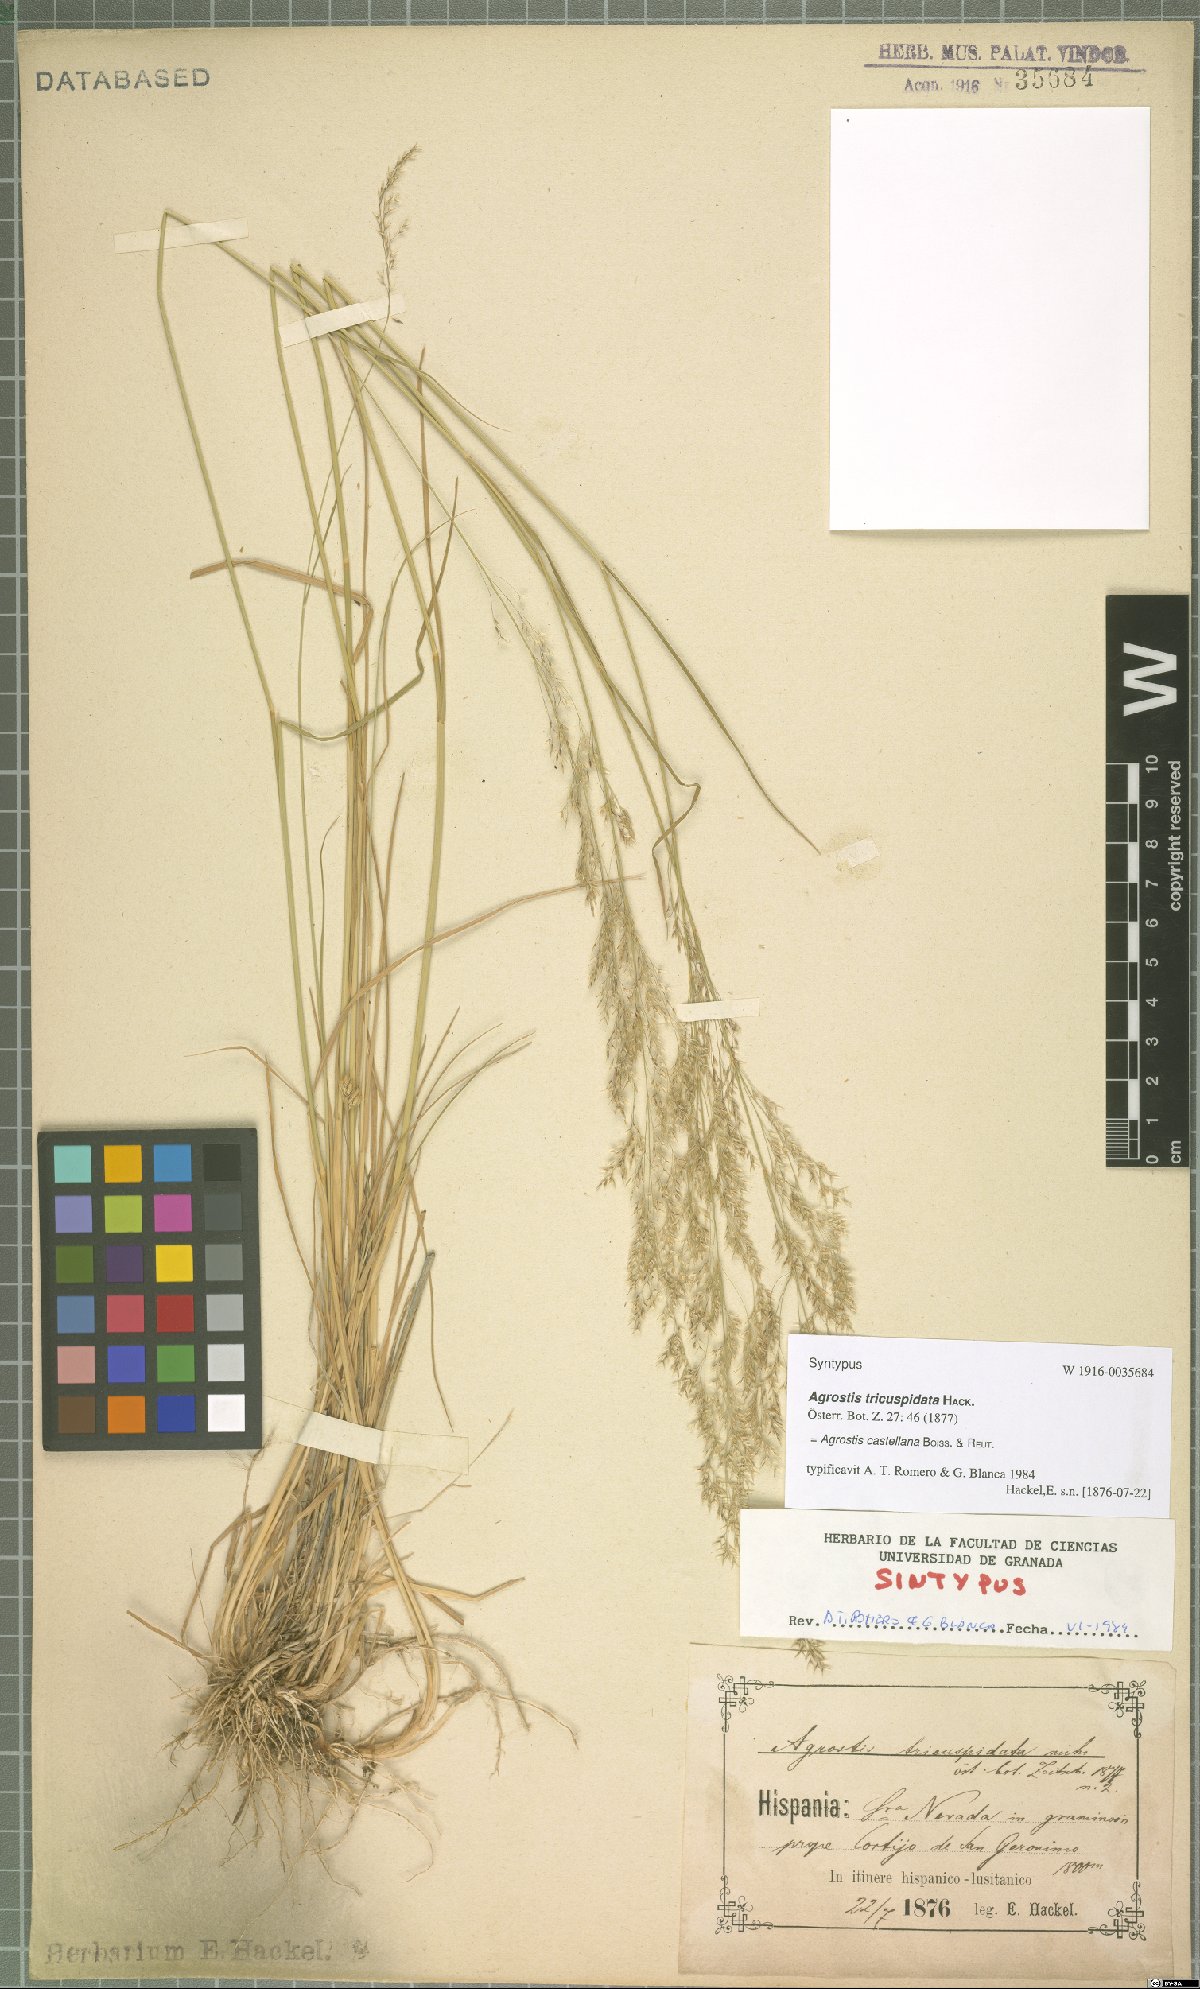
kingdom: Plantae
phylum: Tracheophyta
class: Liliopsida
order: Poales
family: Poaceae
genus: Agrostis
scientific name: Agrostis castellana
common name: Highland bent
